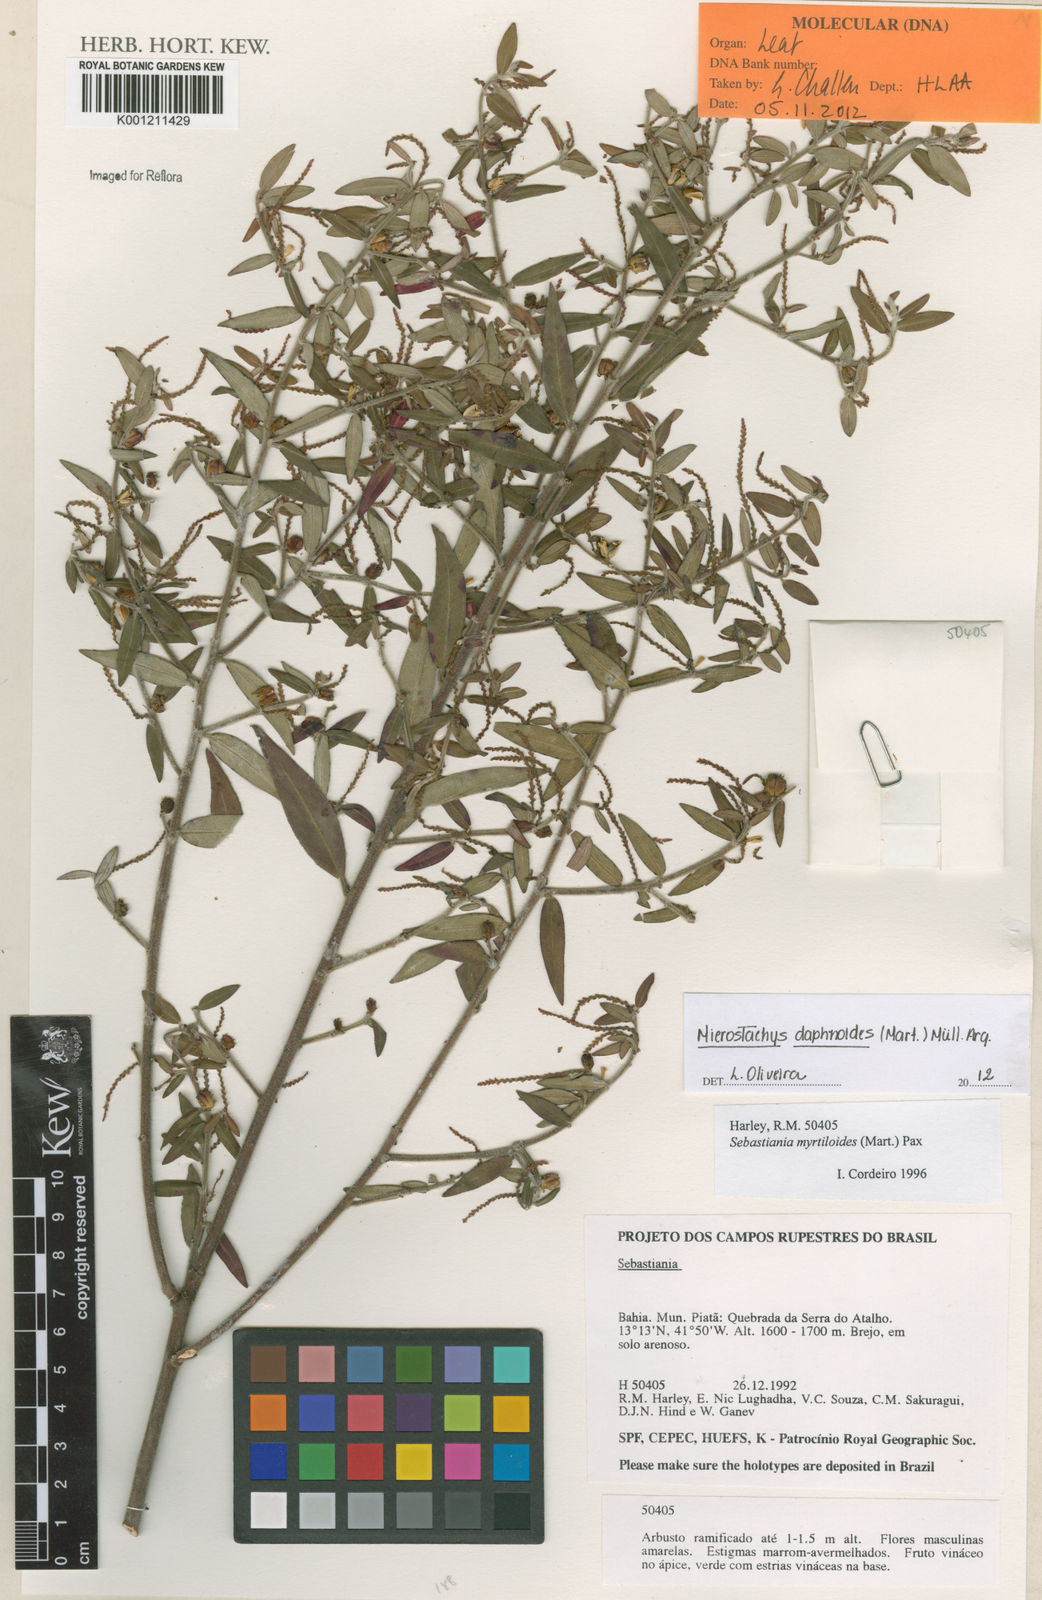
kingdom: Plantae
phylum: Tracheophyta
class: Magnoliopsida
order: Malpighiales
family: Euphorbiaceae
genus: Microstachys
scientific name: Microstachys
